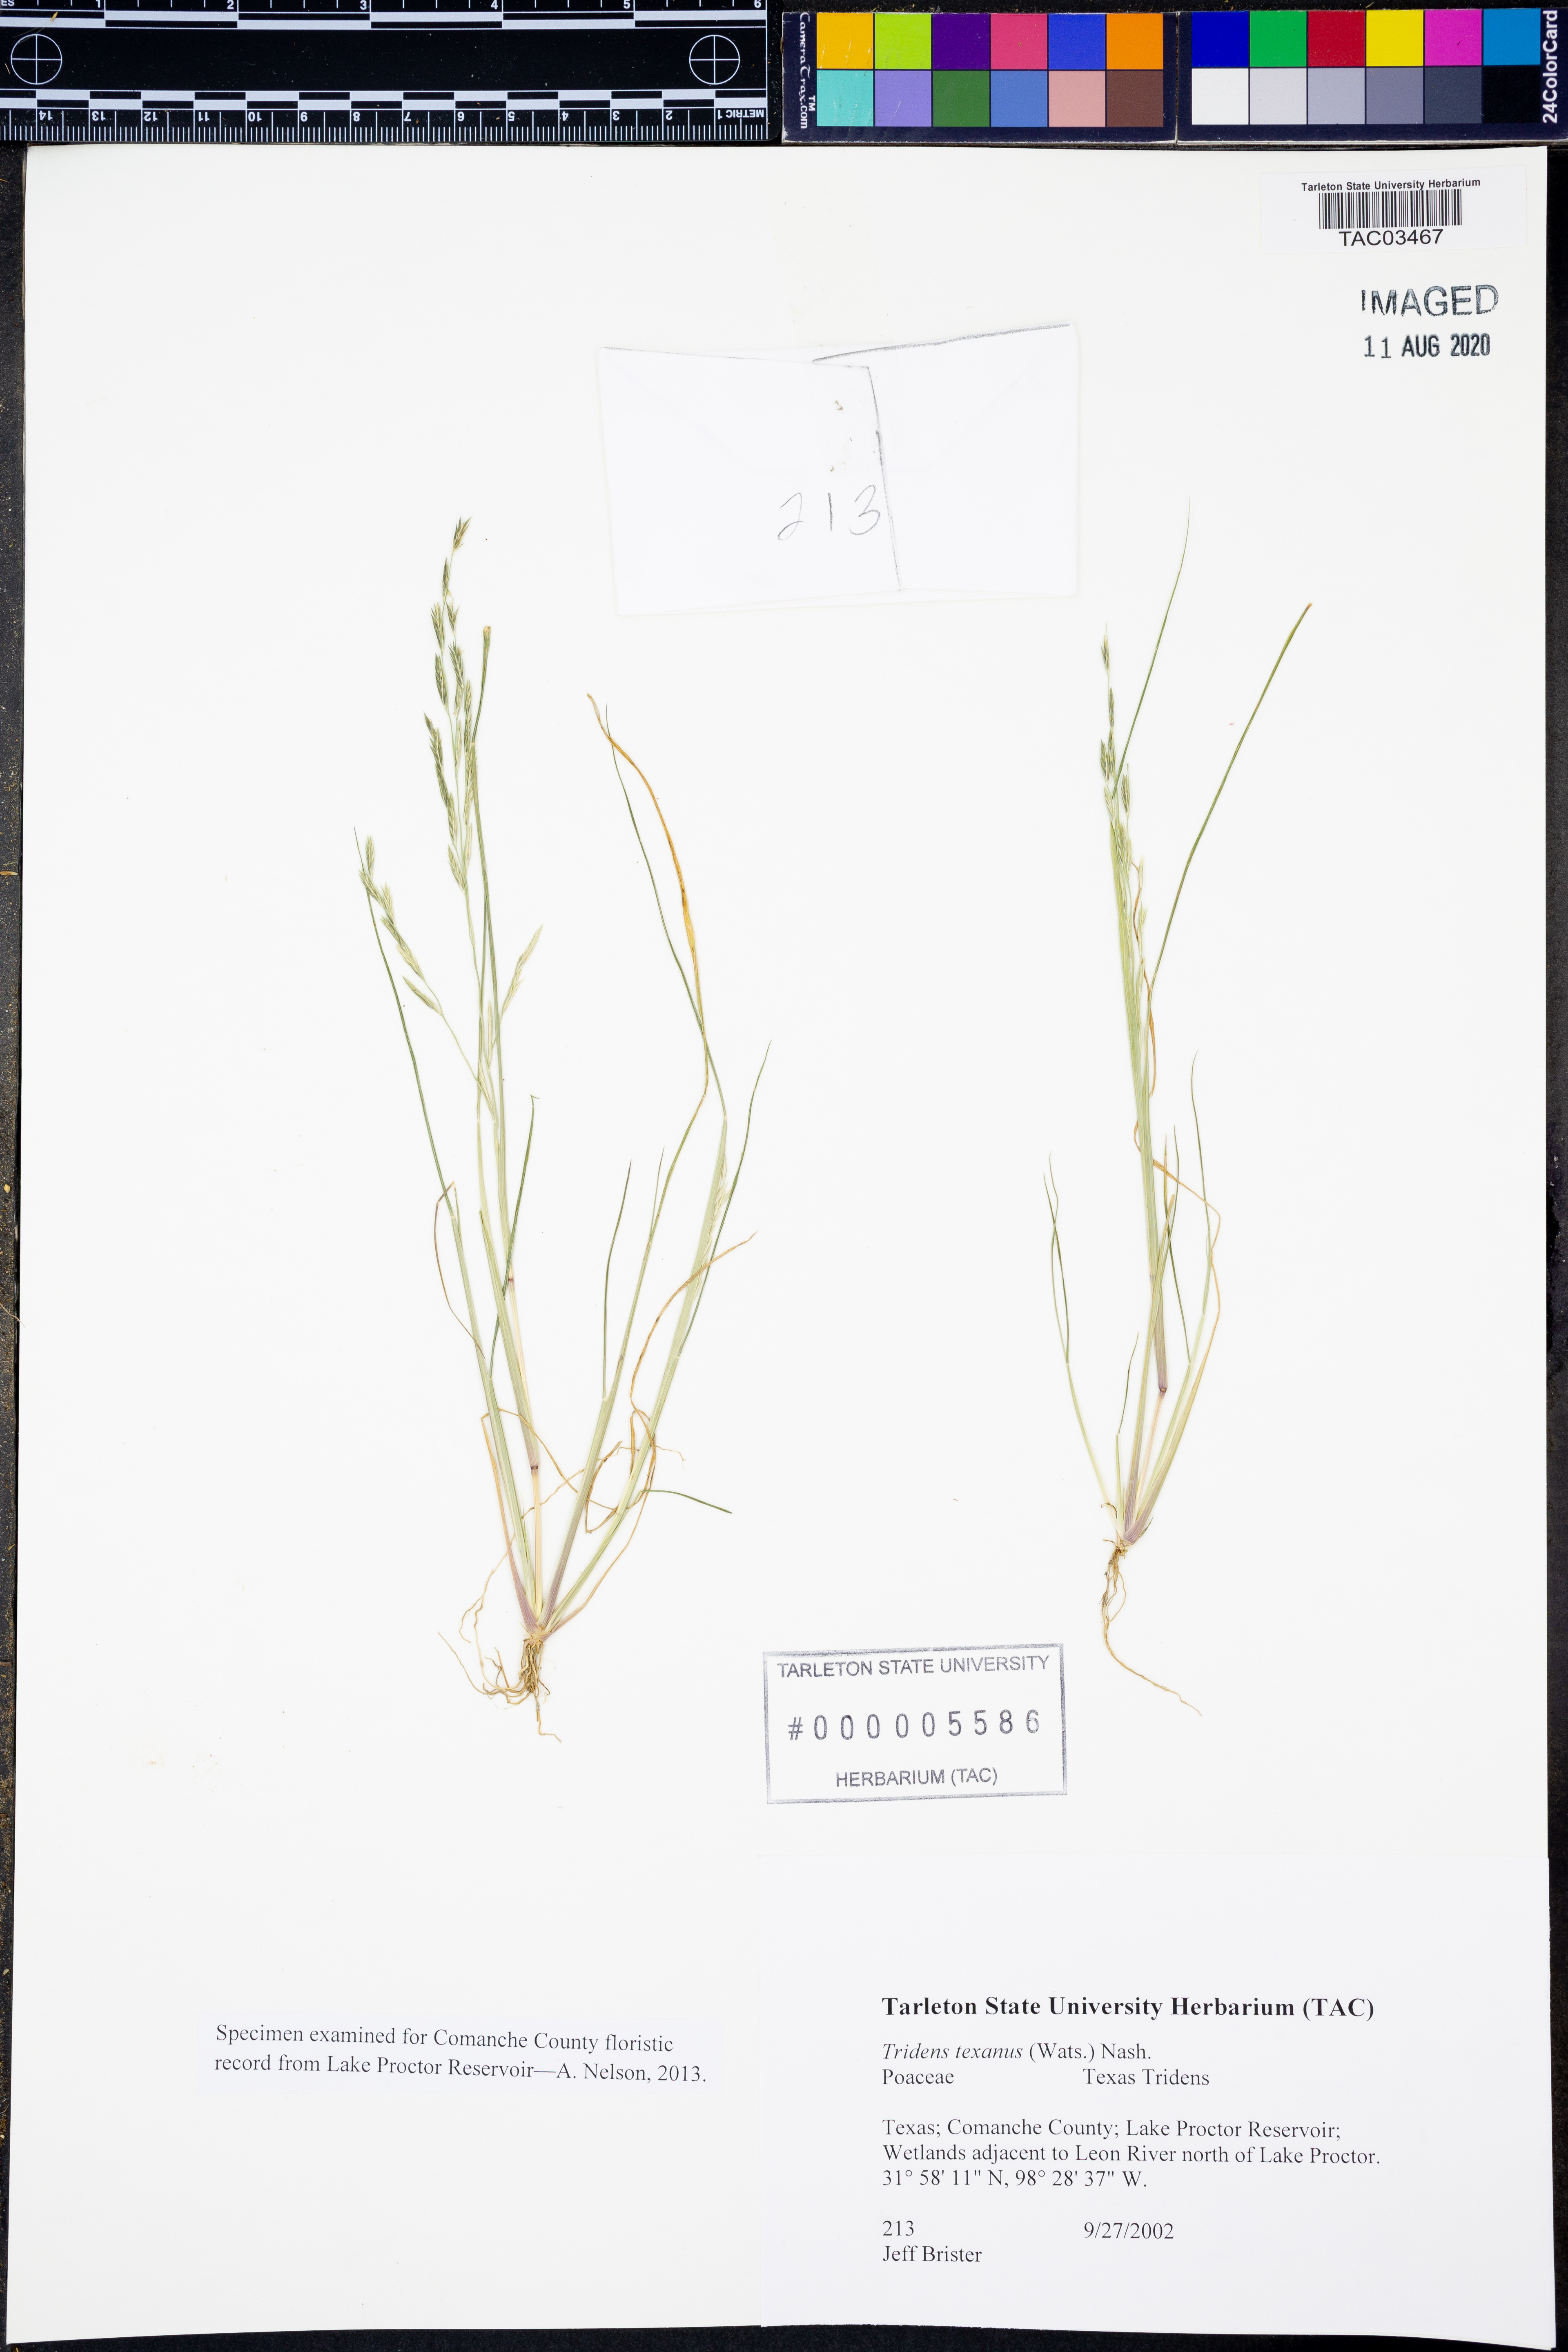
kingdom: Plantae
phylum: Tracheophyta
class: Liliopsida
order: Poales
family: Poaceae
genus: Tridens
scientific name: Tridens texanus
